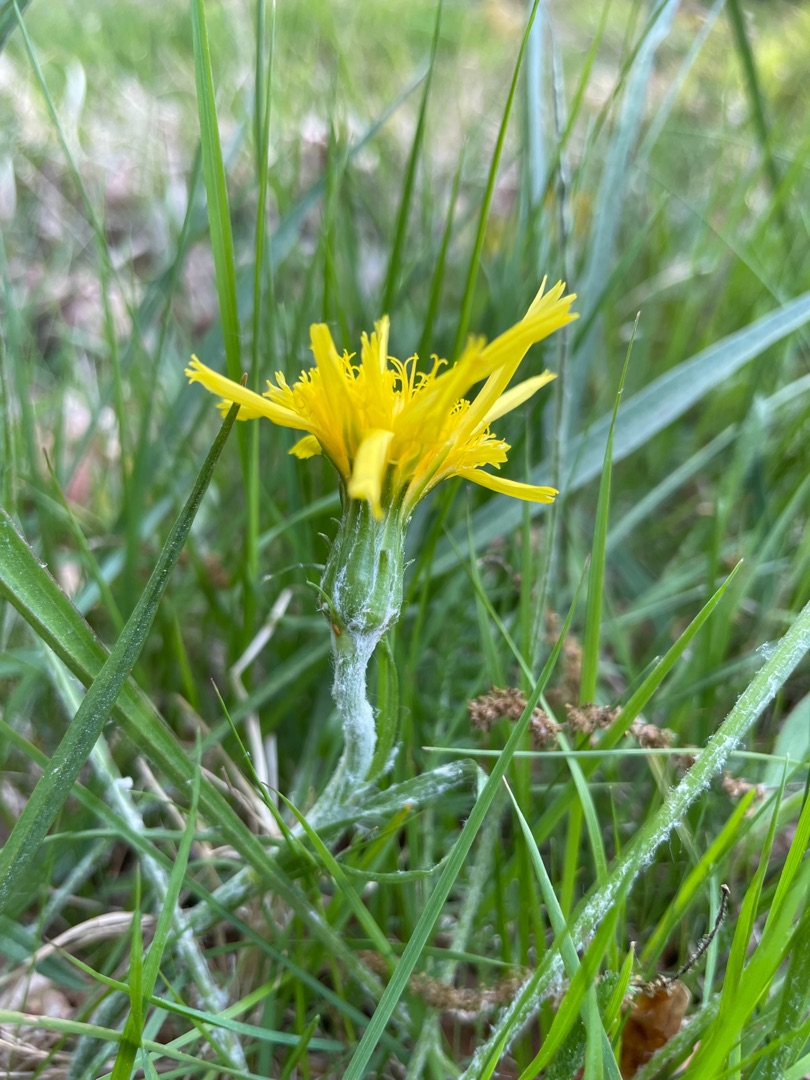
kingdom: Plantae
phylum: Tracheophyta
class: Magnoliopsida
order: Asterales
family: Asteraceae
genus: Scorzonera
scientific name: Scorzonera humilis
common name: Lav skorsoner
